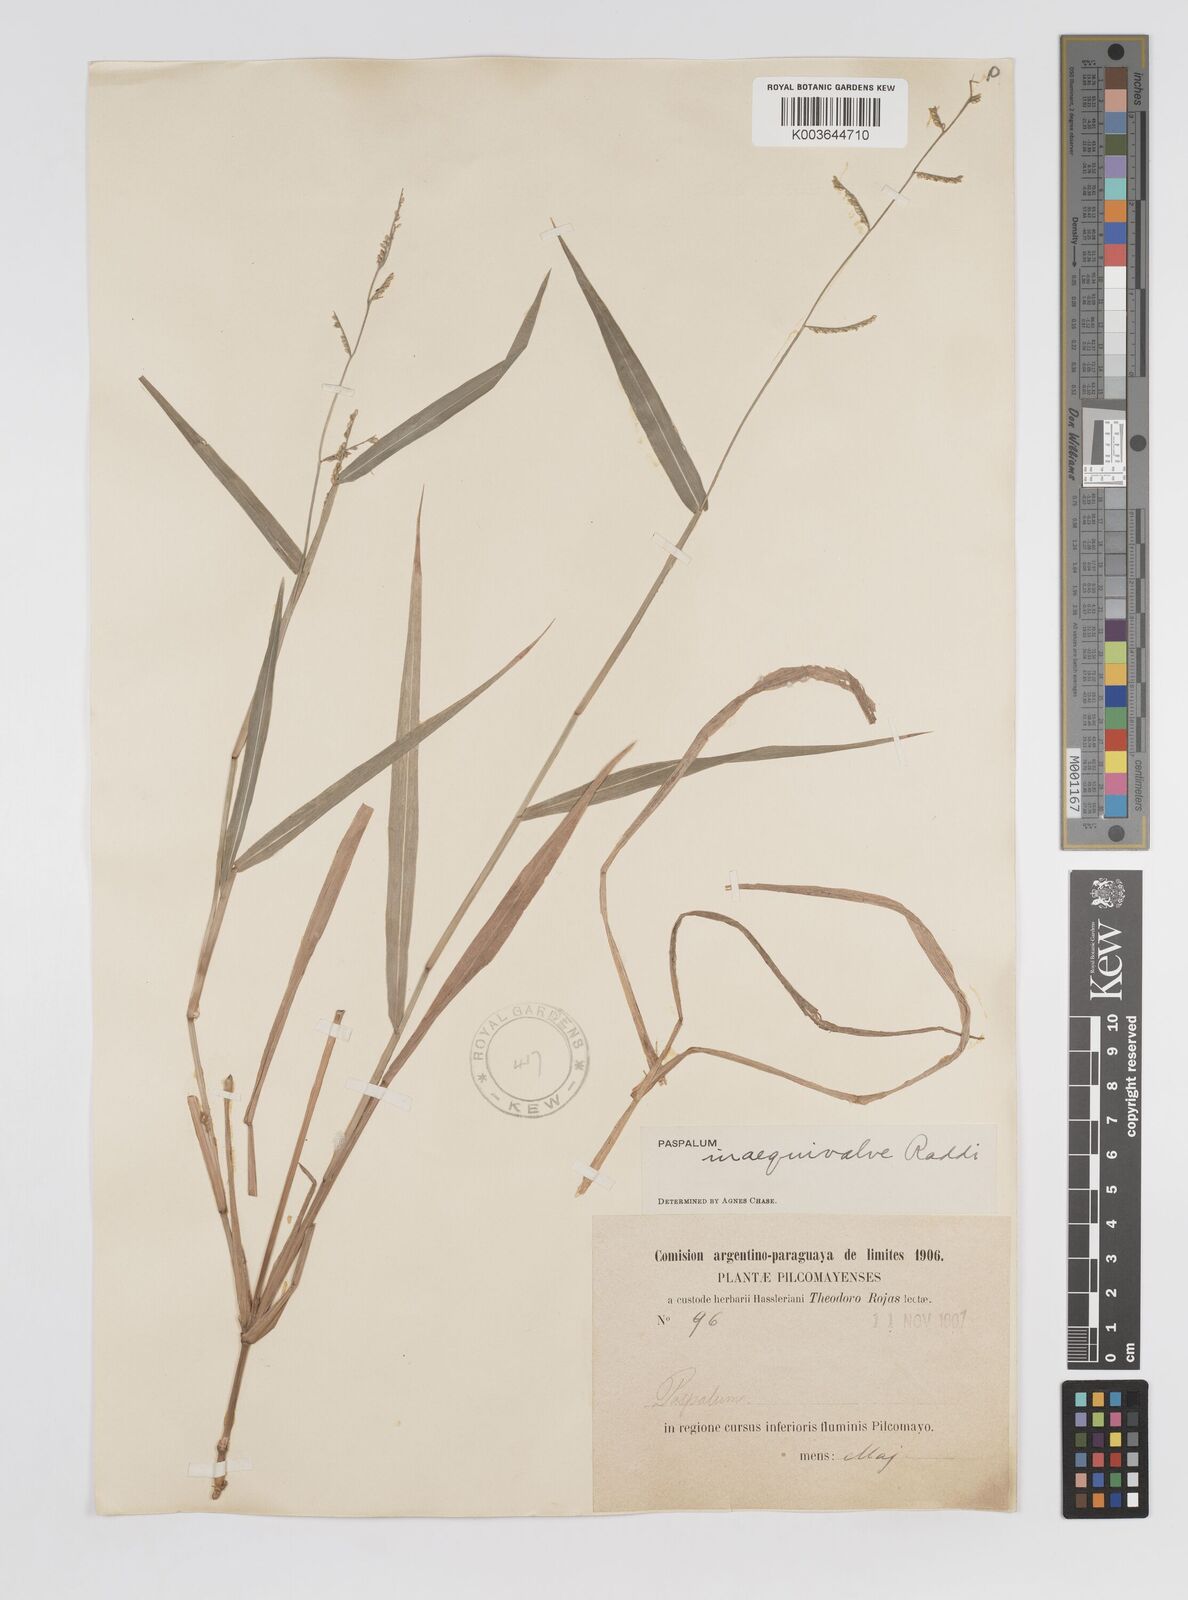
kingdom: Plantae
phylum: Tracheophyta
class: Liliopsida
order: Poales
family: Poaceae
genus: Paspalum
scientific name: Paspalum inaequivalve
